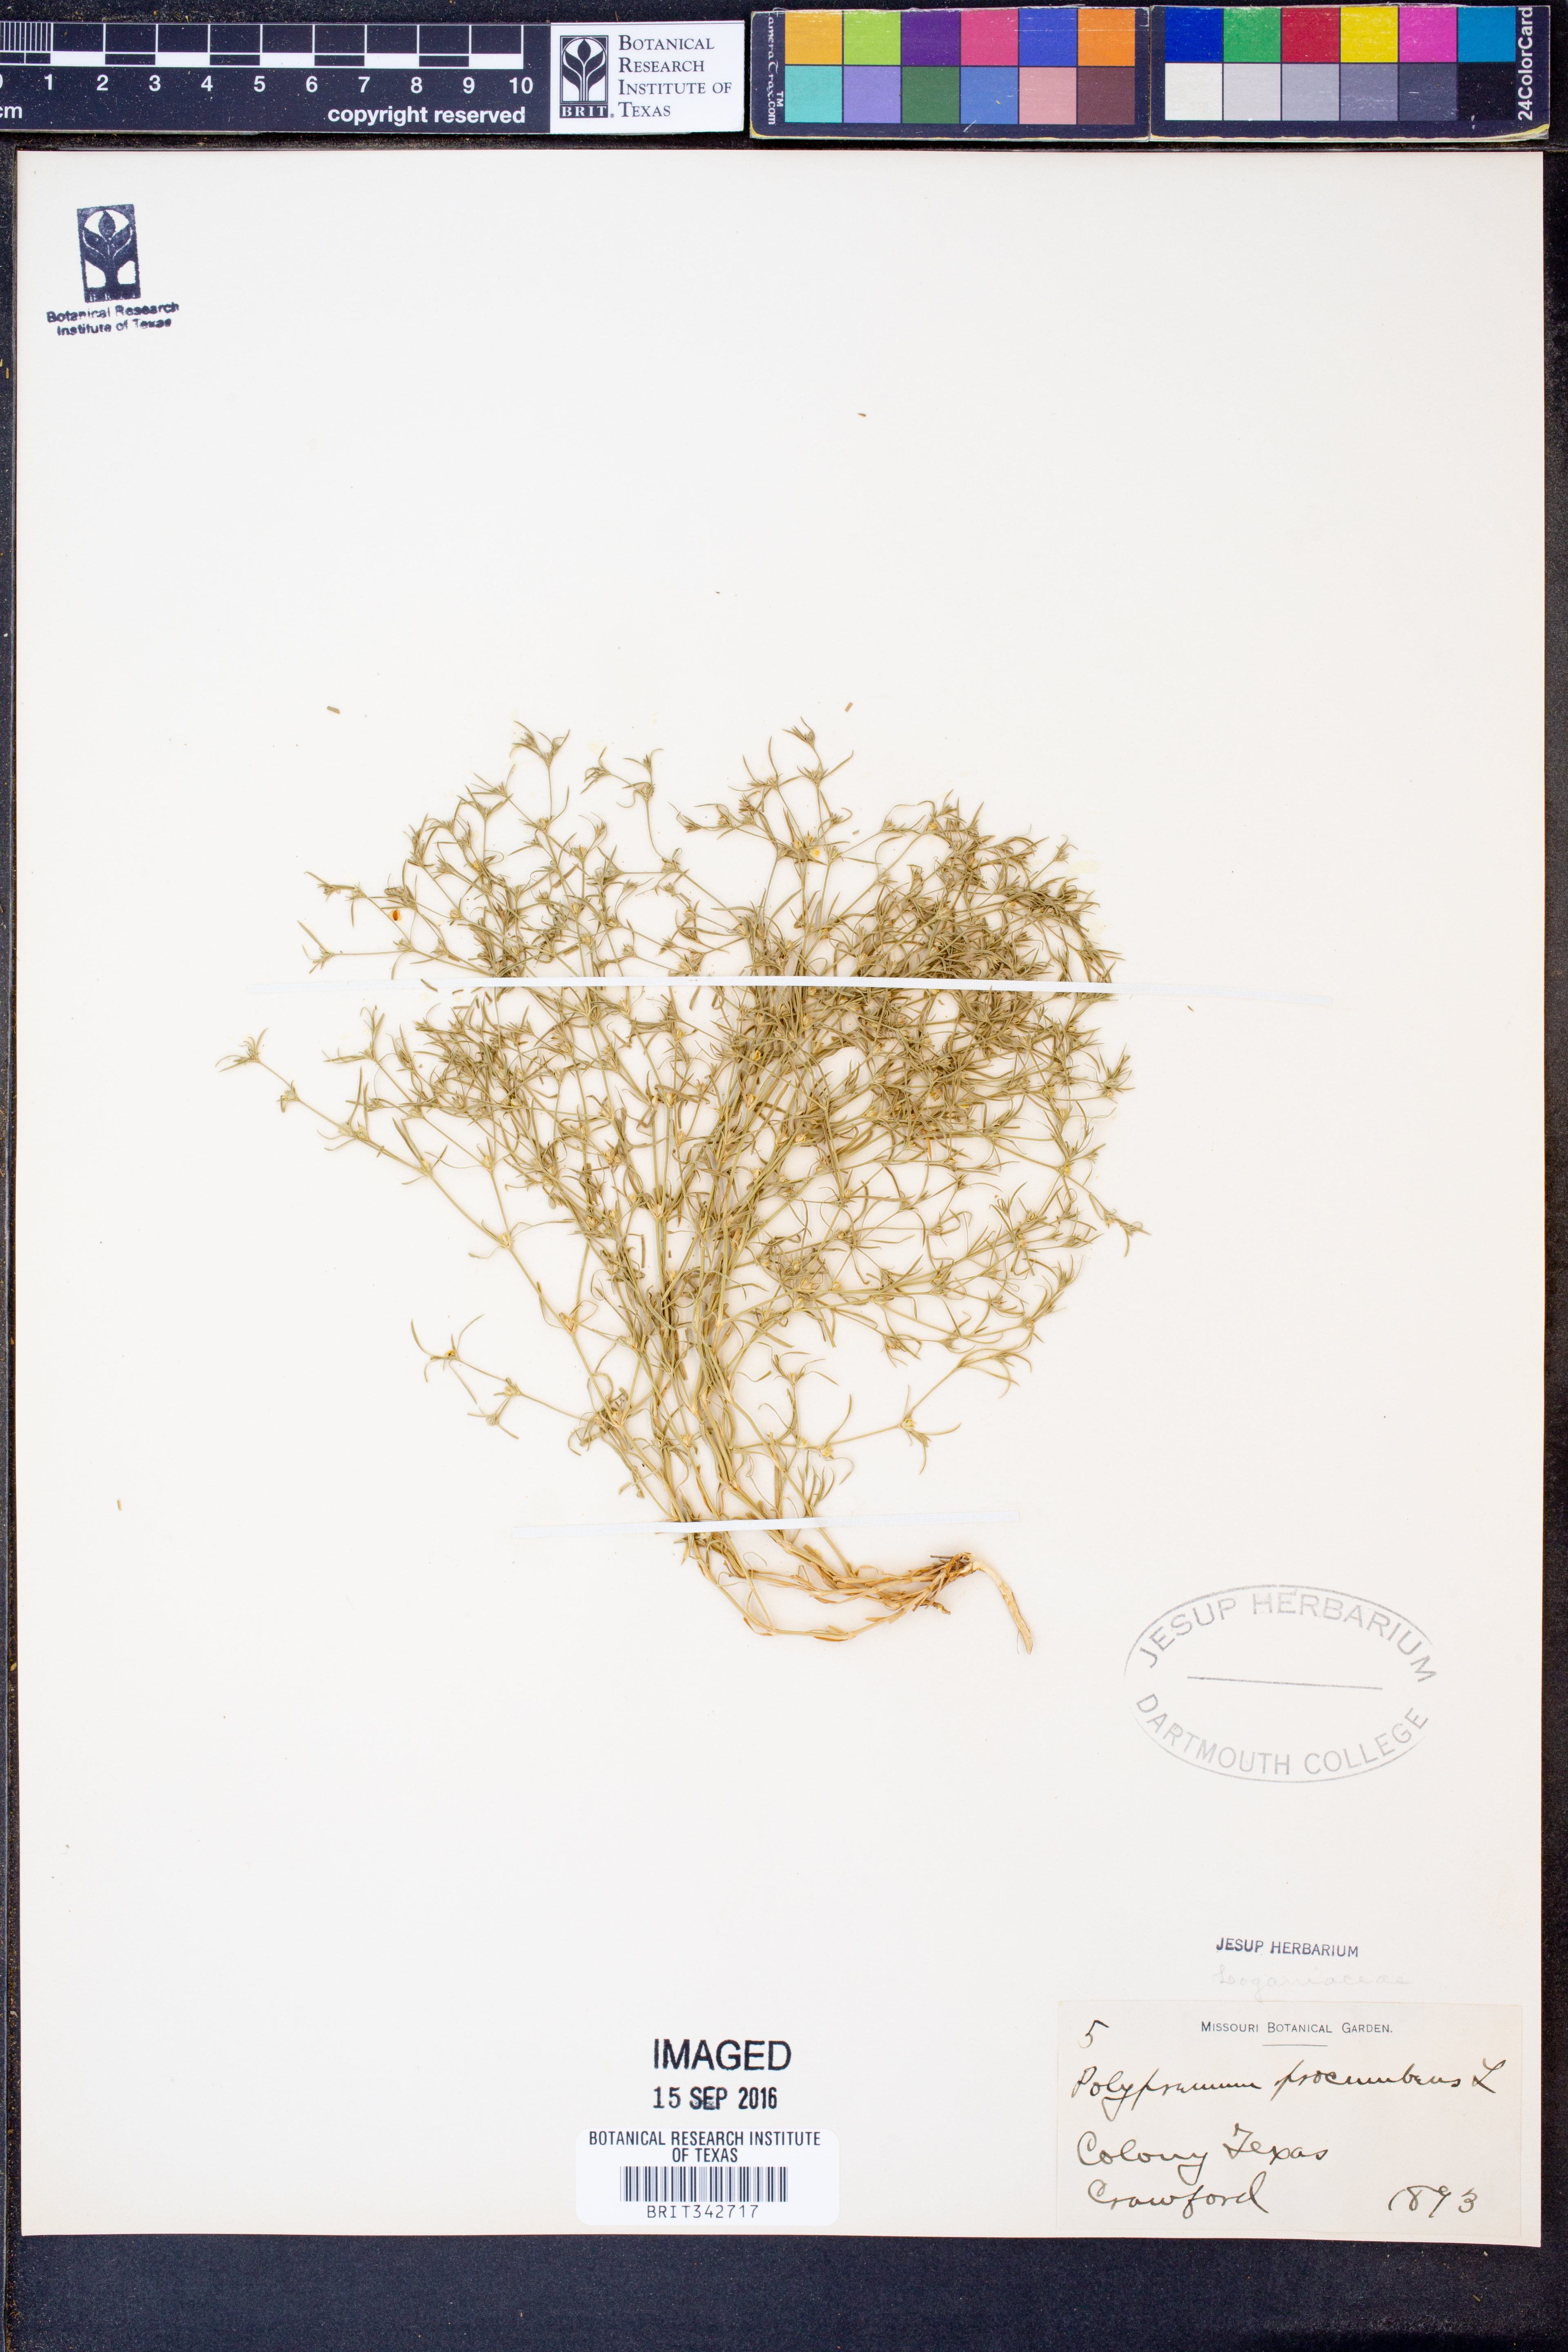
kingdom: Plantae
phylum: Tracheophyta
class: Magnoliopsida
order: Lamiales
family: Tetrachondraceae
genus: Polypremum
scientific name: Polypremum procumbens
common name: Juniper-leaf
